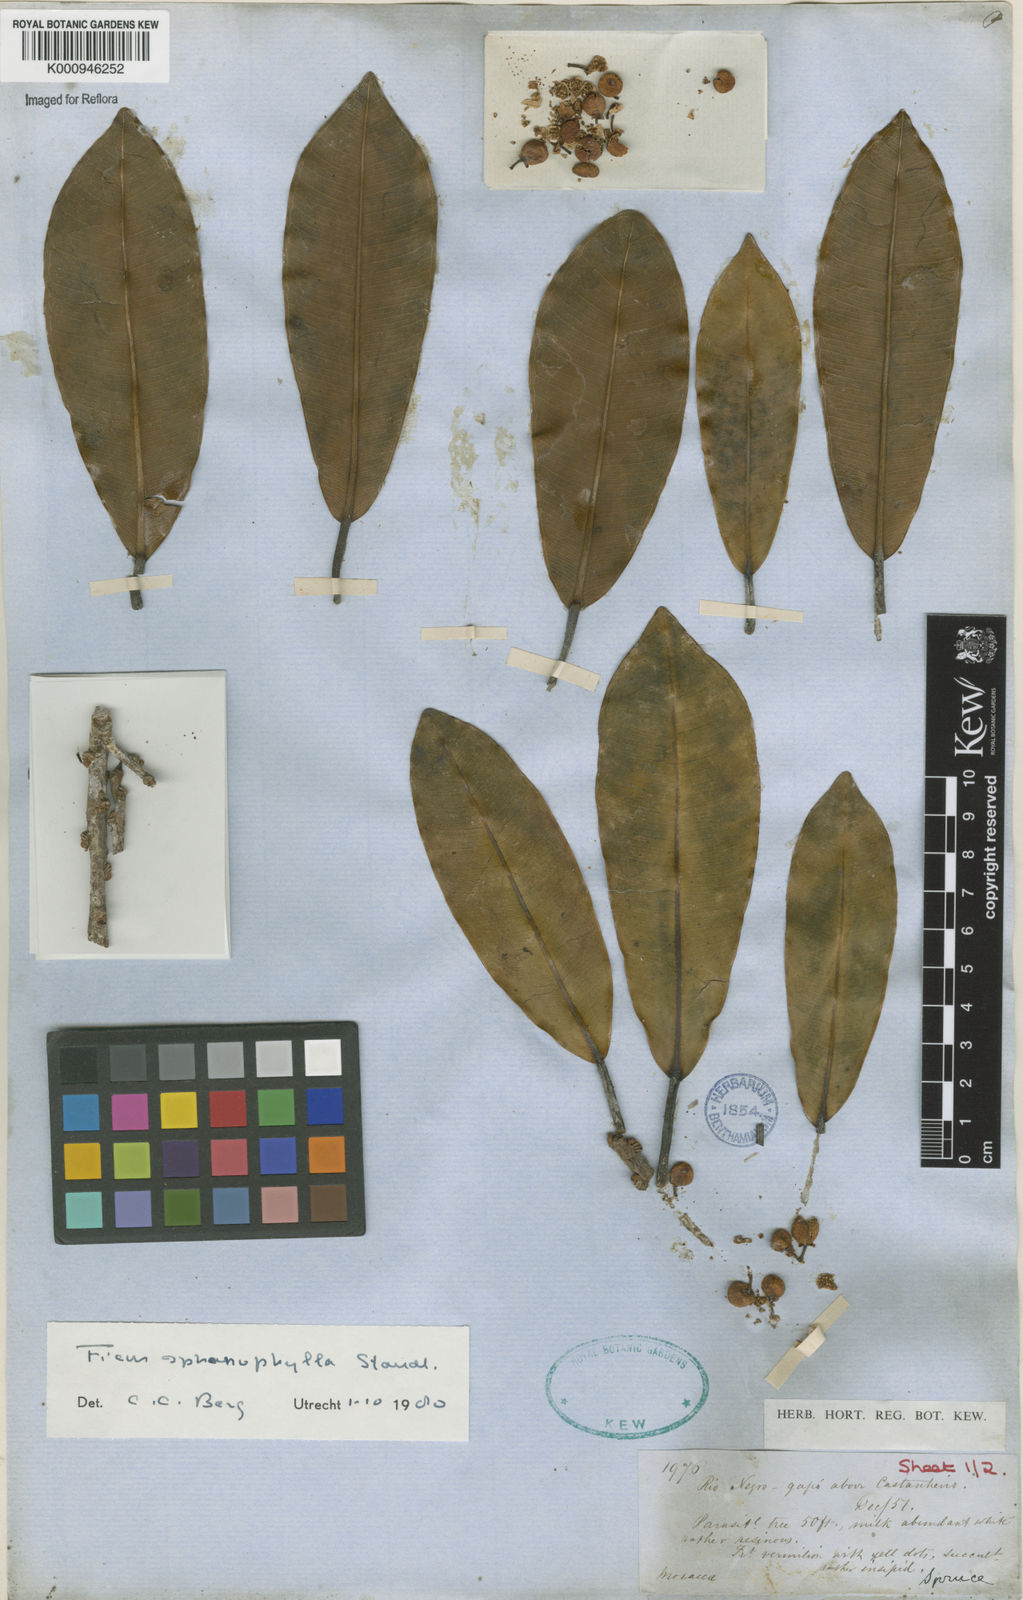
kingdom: Plantae
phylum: Tracheophyta
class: Magnoliopsida
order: Rosales
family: Moraceae
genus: Ficus
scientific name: Ficus sphenophylla
